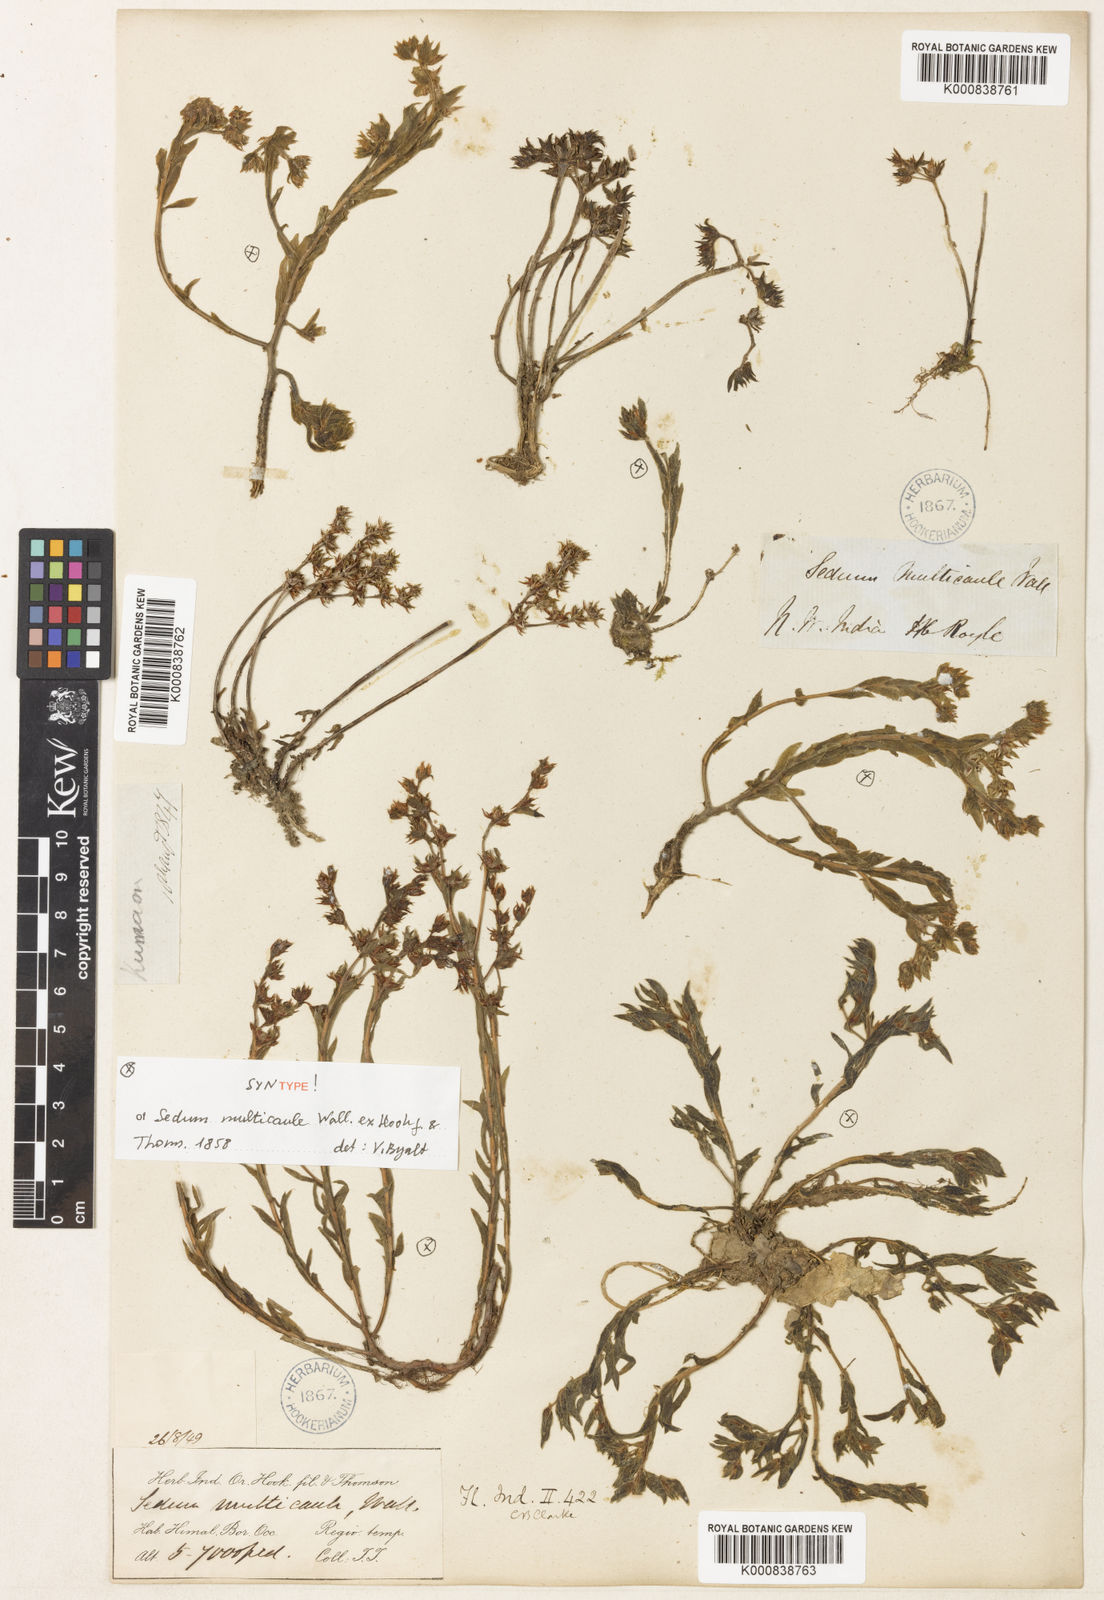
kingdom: Plantae
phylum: Tracheophyta
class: Magnoliopsida
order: Saxifragales
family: Crassulaceae
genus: Sedum
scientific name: Sedum
